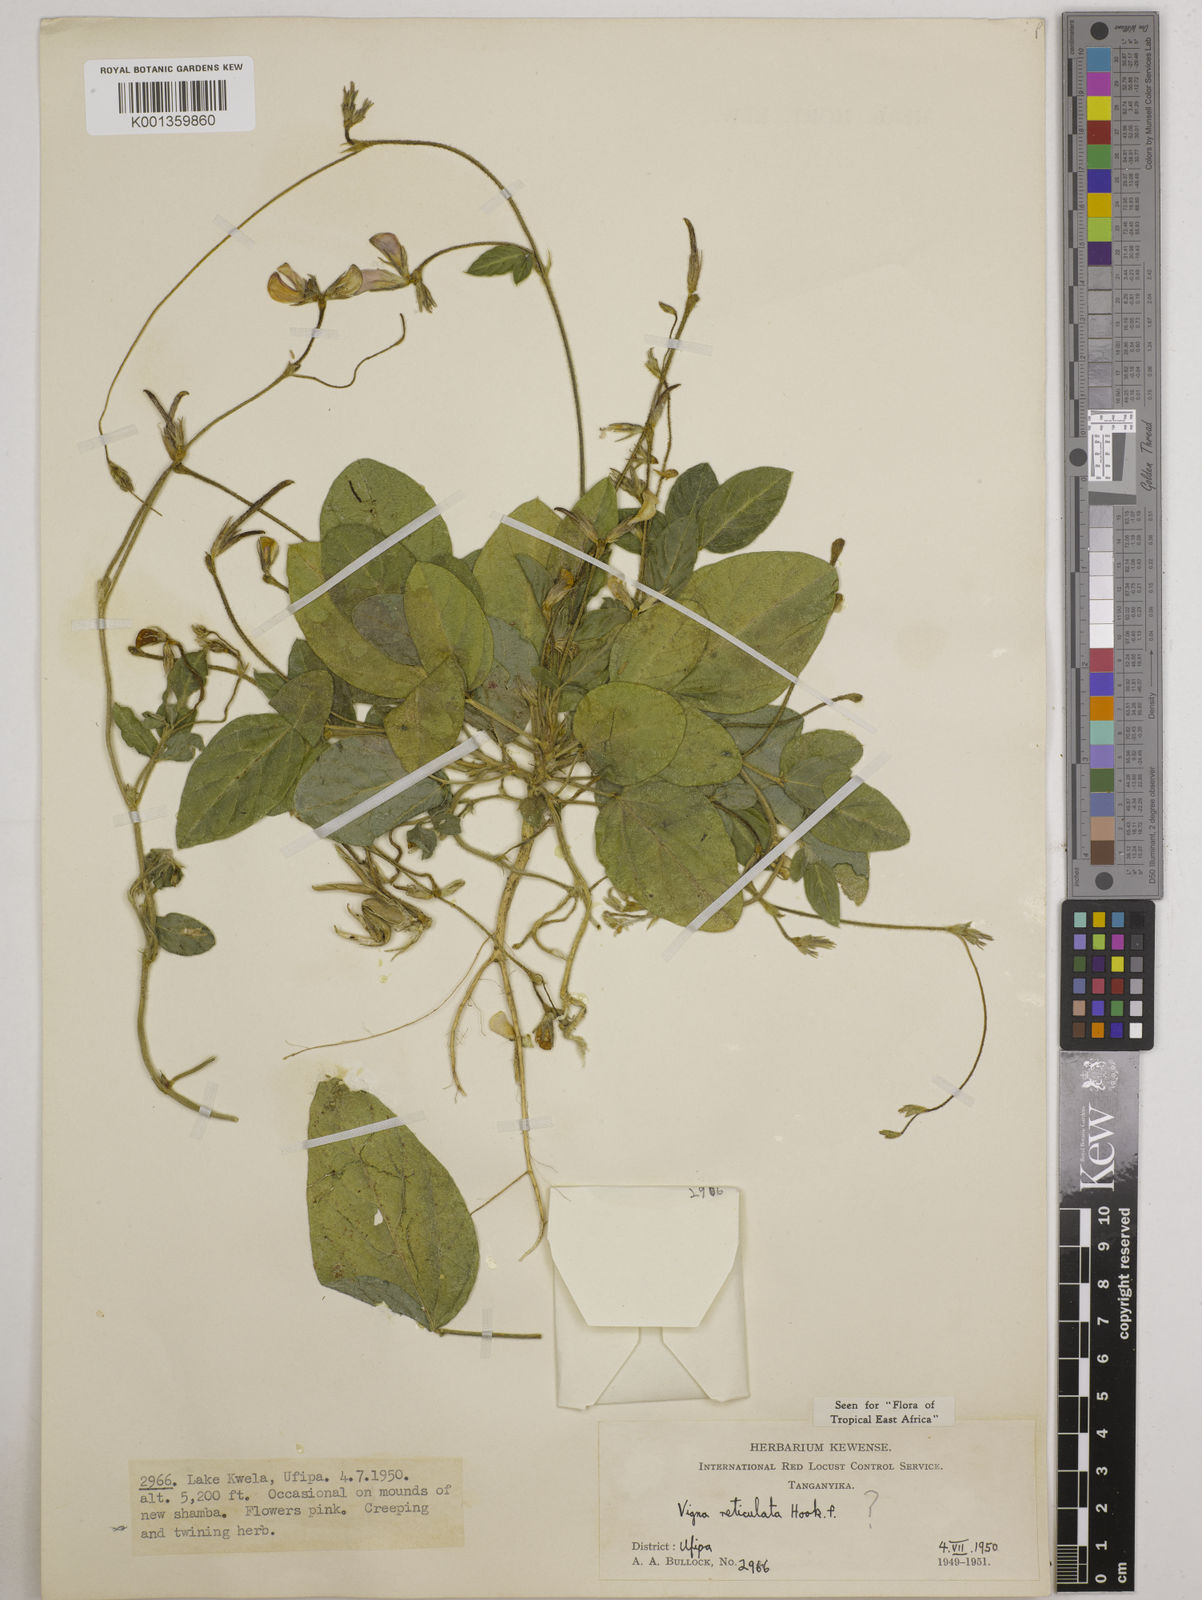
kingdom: Plantae
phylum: Tracheophyta
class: Magnoliopsida
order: Fabales
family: Fabaceae
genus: Vigna
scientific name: Vigna reticulata
